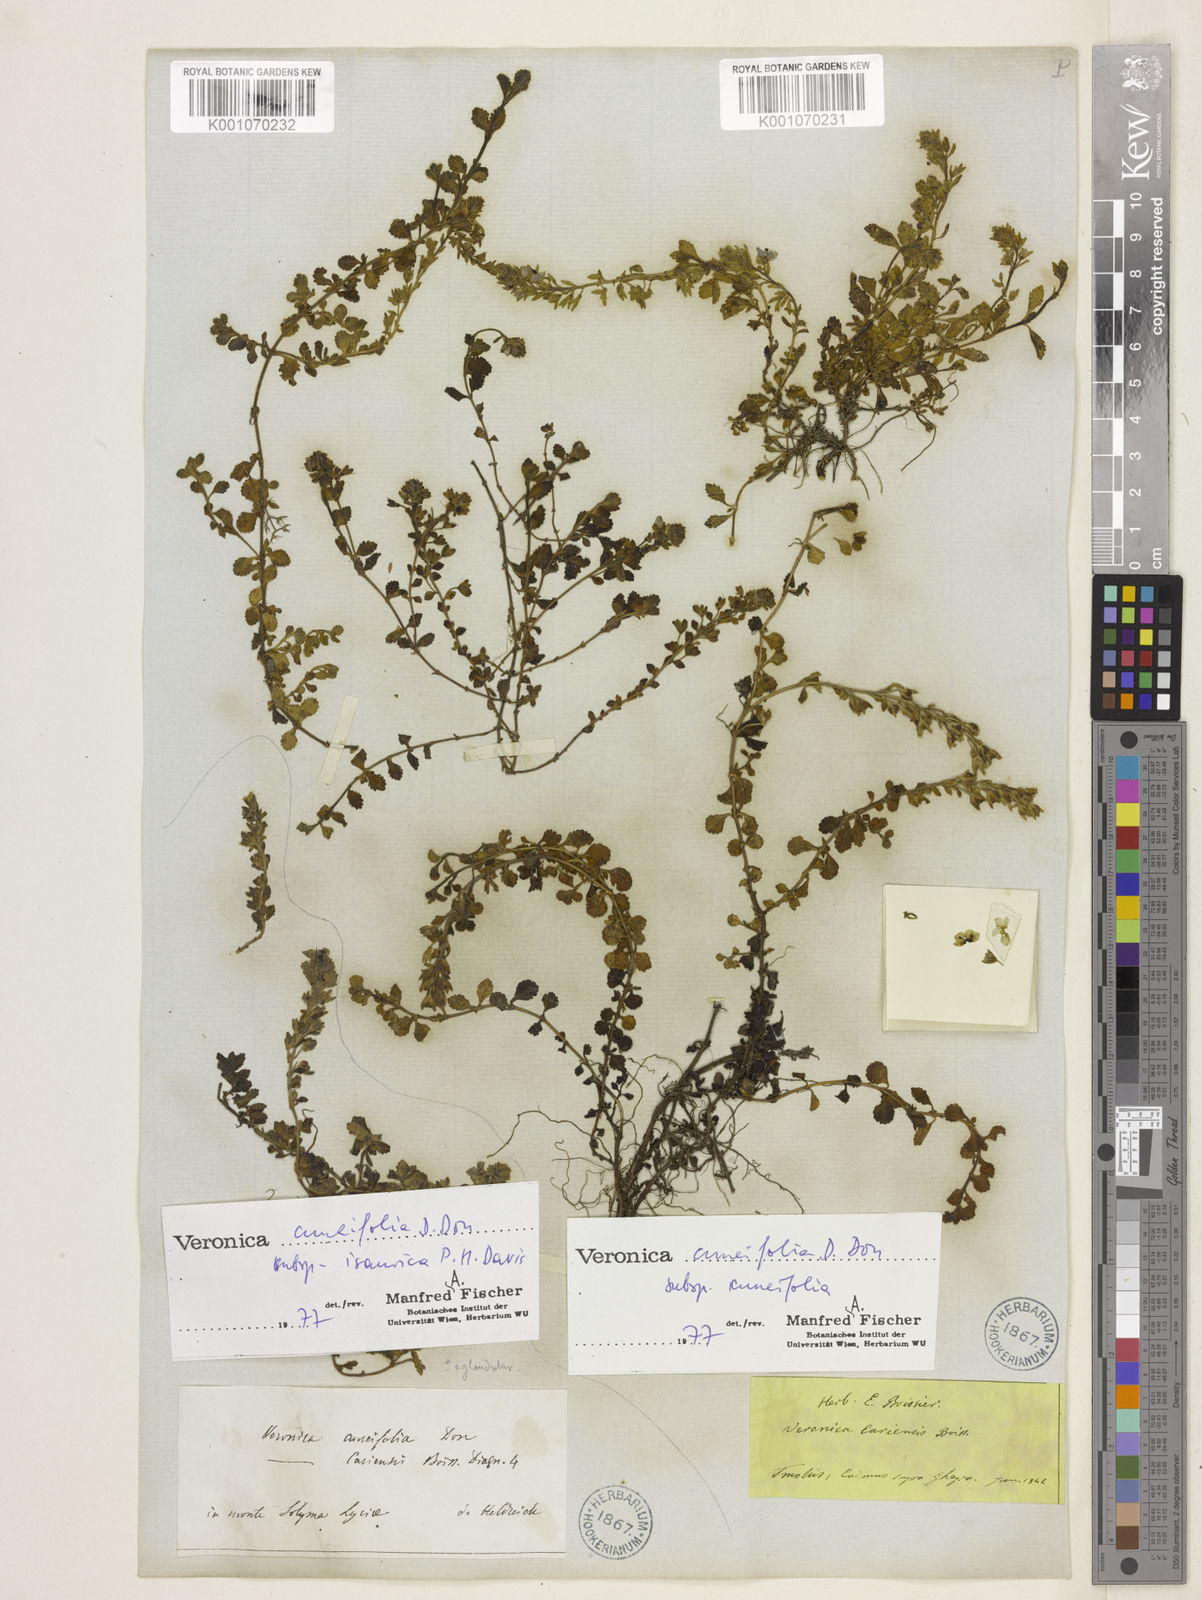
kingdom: Plantae
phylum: Tracheophyta
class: Magnoliopsida
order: Lamiales
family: Plantaginaceae
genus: Veronica
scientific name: Veronica cuneifolia
